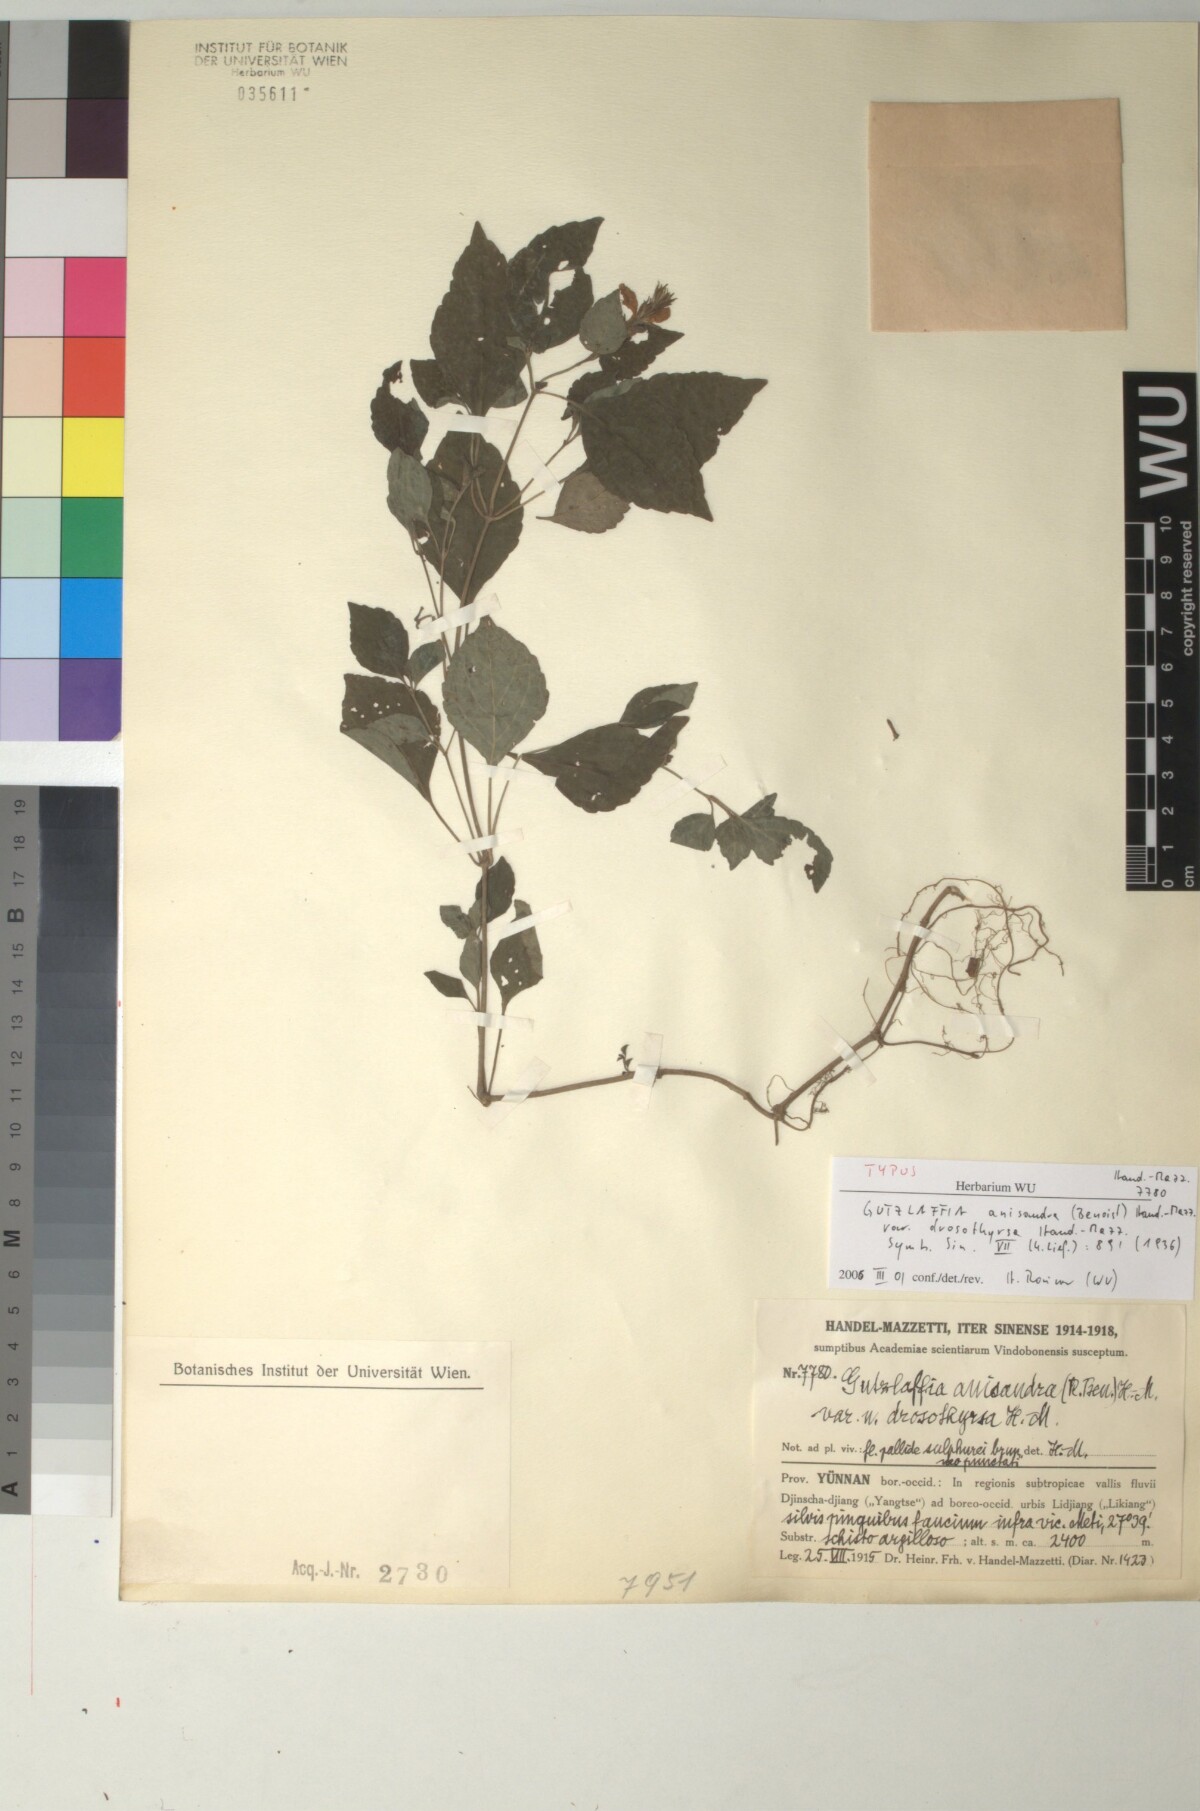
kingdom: Plantae
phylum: Tracheophyta
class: Magnoliopsida
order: Lamiales
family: Acanthaceae
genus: Strobilanthes
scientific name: Strobilanthes henryi
